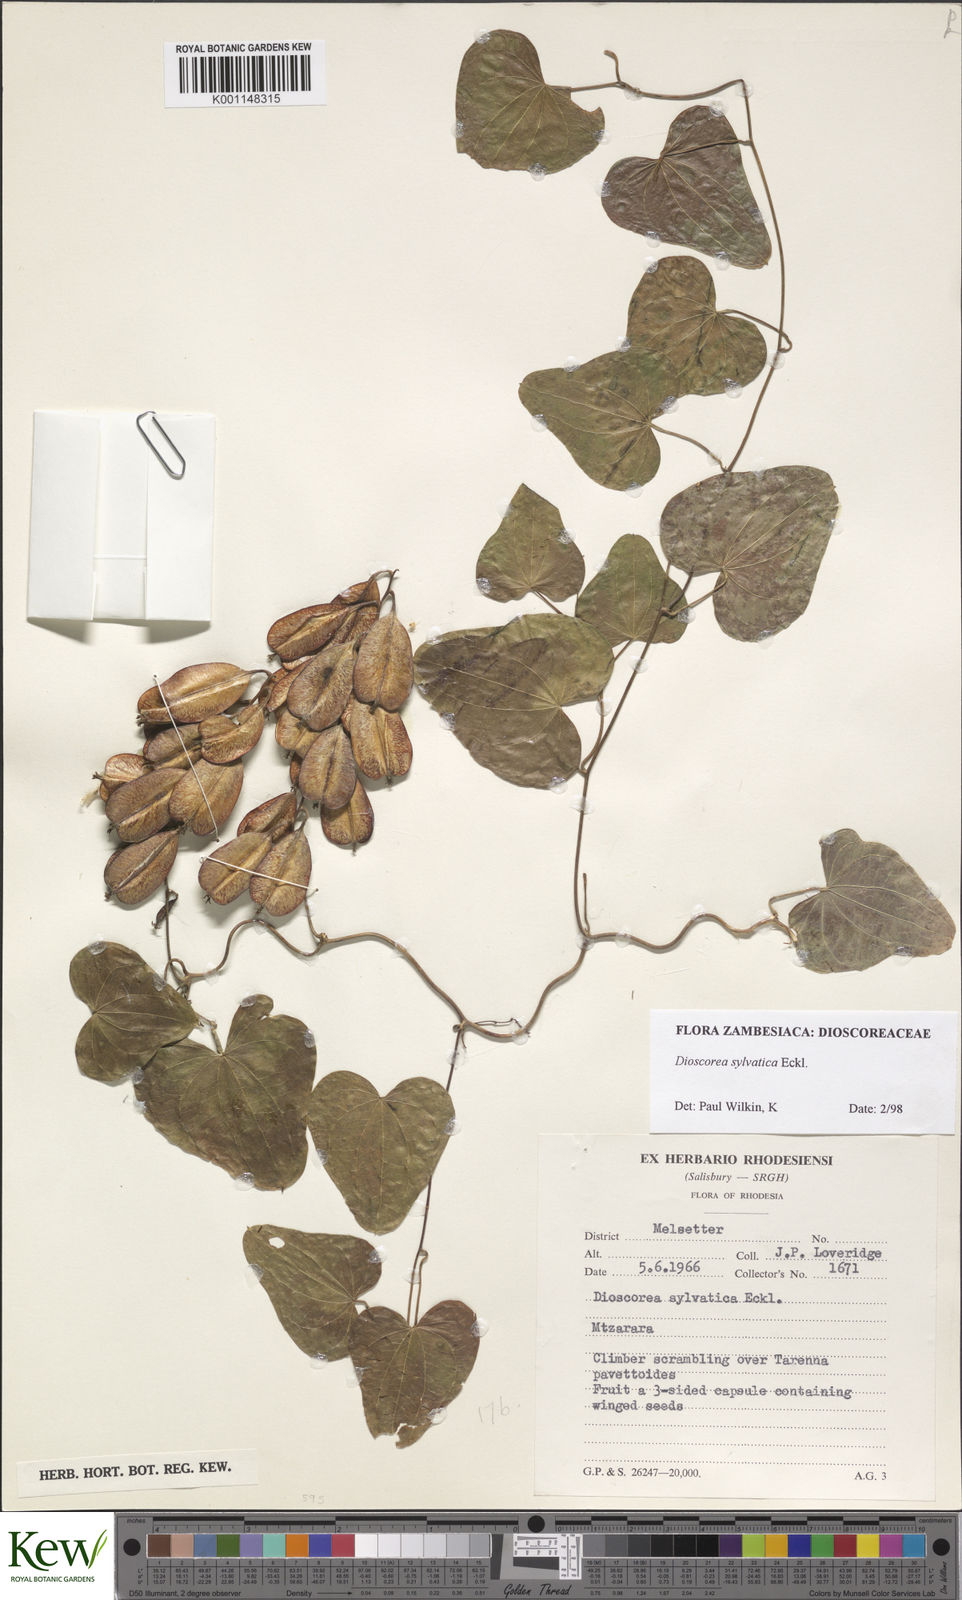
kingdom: Plantae
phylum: Tracheophyta
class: Liliopsida
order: Dioscoreales
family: Dioscoreaceae
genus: Dioscorea
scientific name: Dioscorea sylvatica
